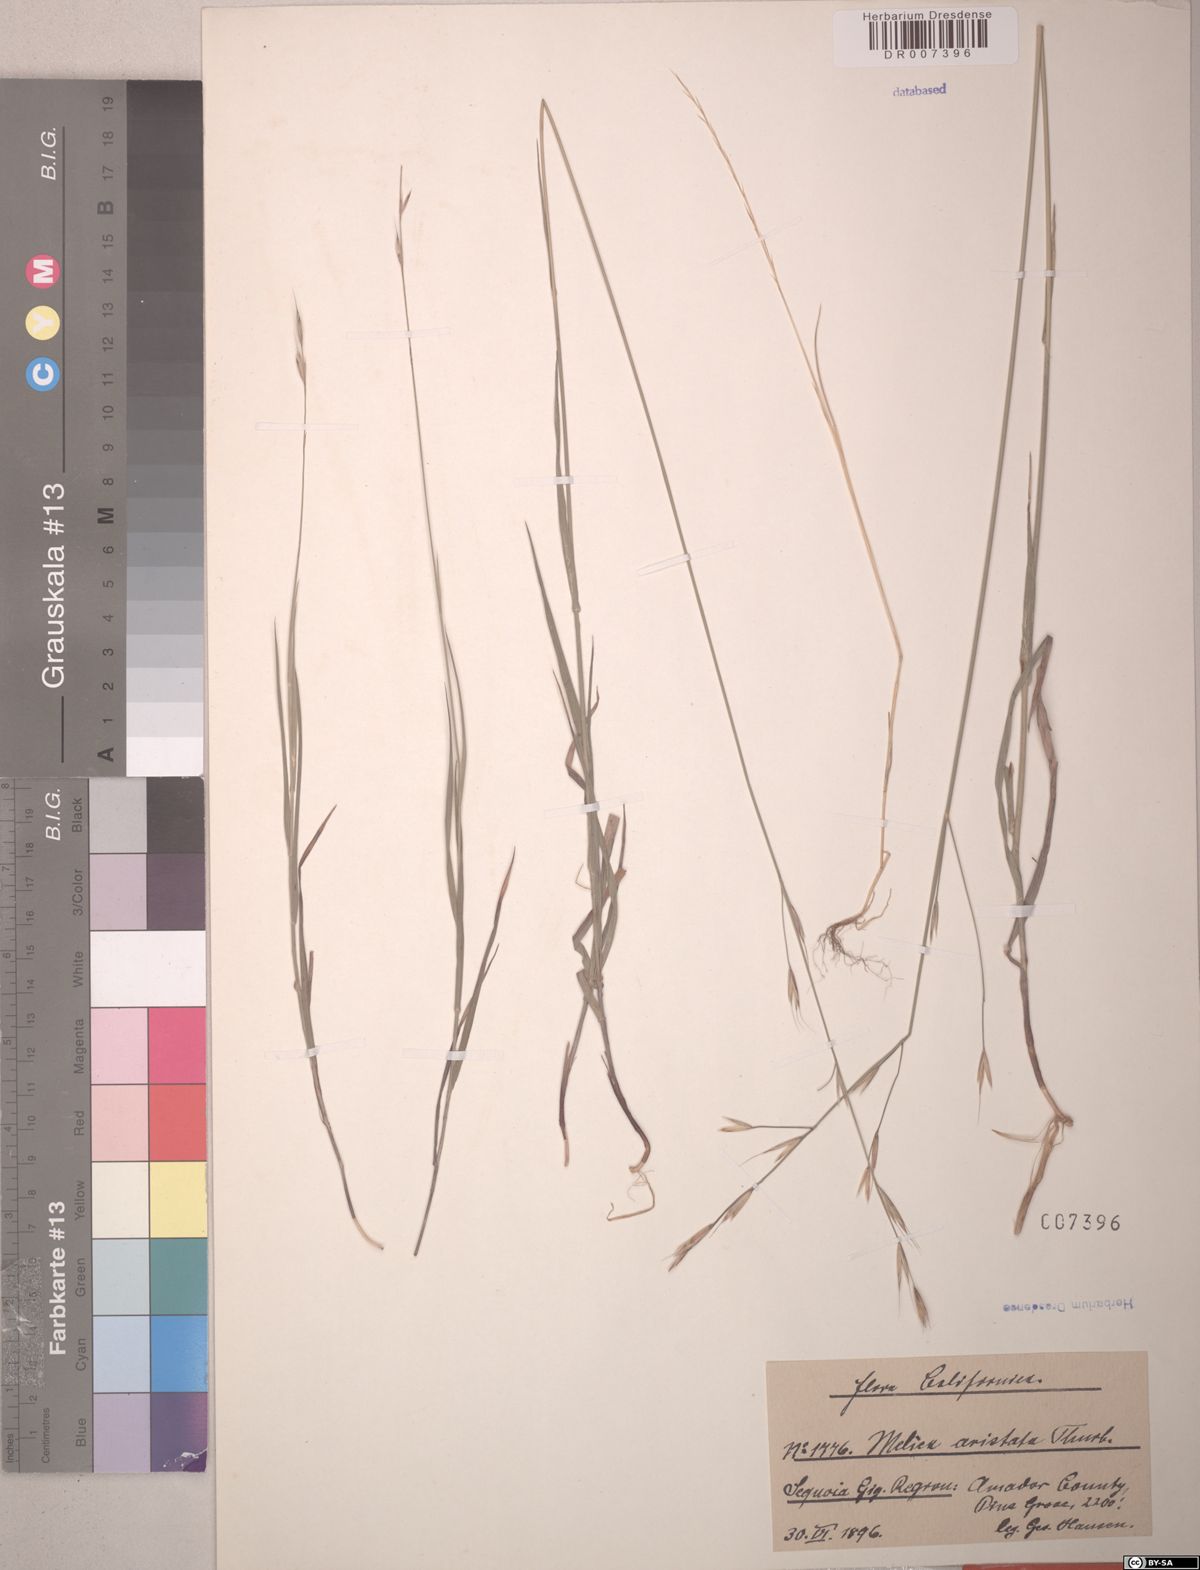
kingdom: Plantae
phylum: Tracheophyta
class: Liliopsida
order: Poales
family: Poaceae
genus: Melica
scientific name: Melica aristata
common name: Awned melic
